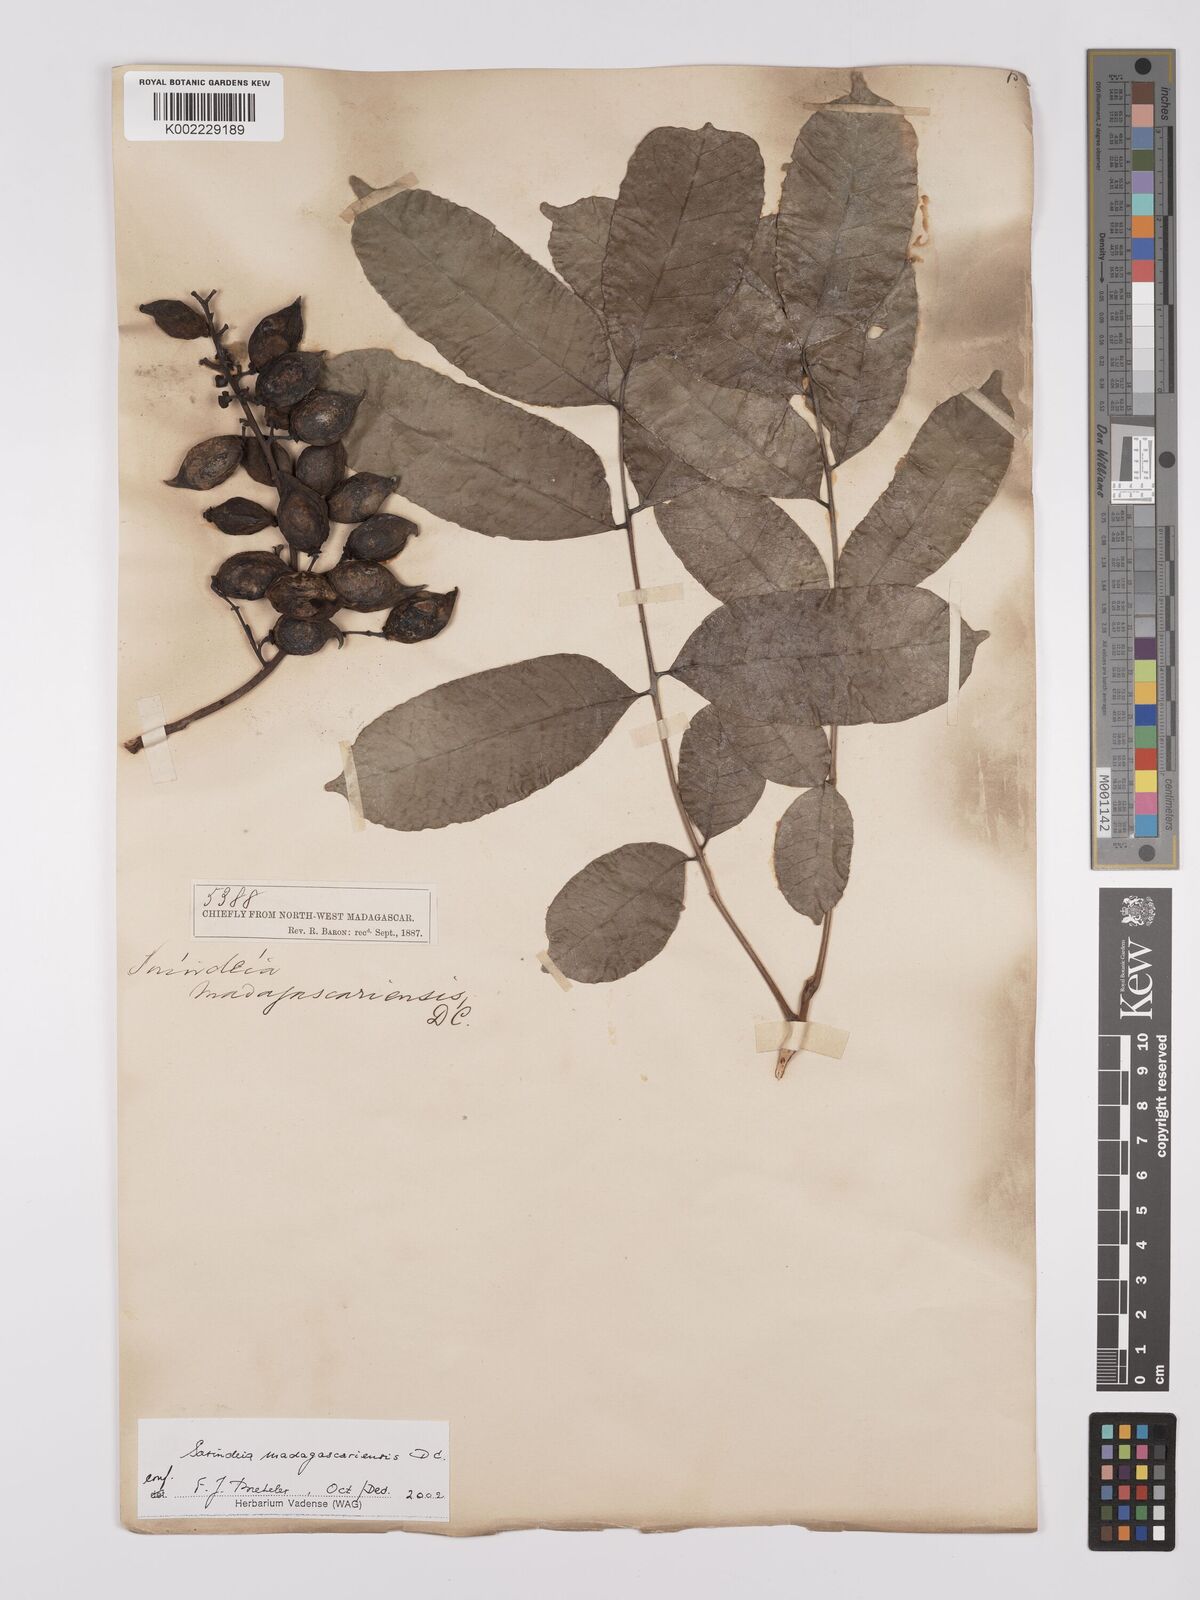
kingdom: Plantae
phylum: Tracheophyta
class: Magnoliopsida
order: Sapindales
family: Anacardiaceae
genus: Sorindeia
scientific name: Sorindeia madagascariensis
